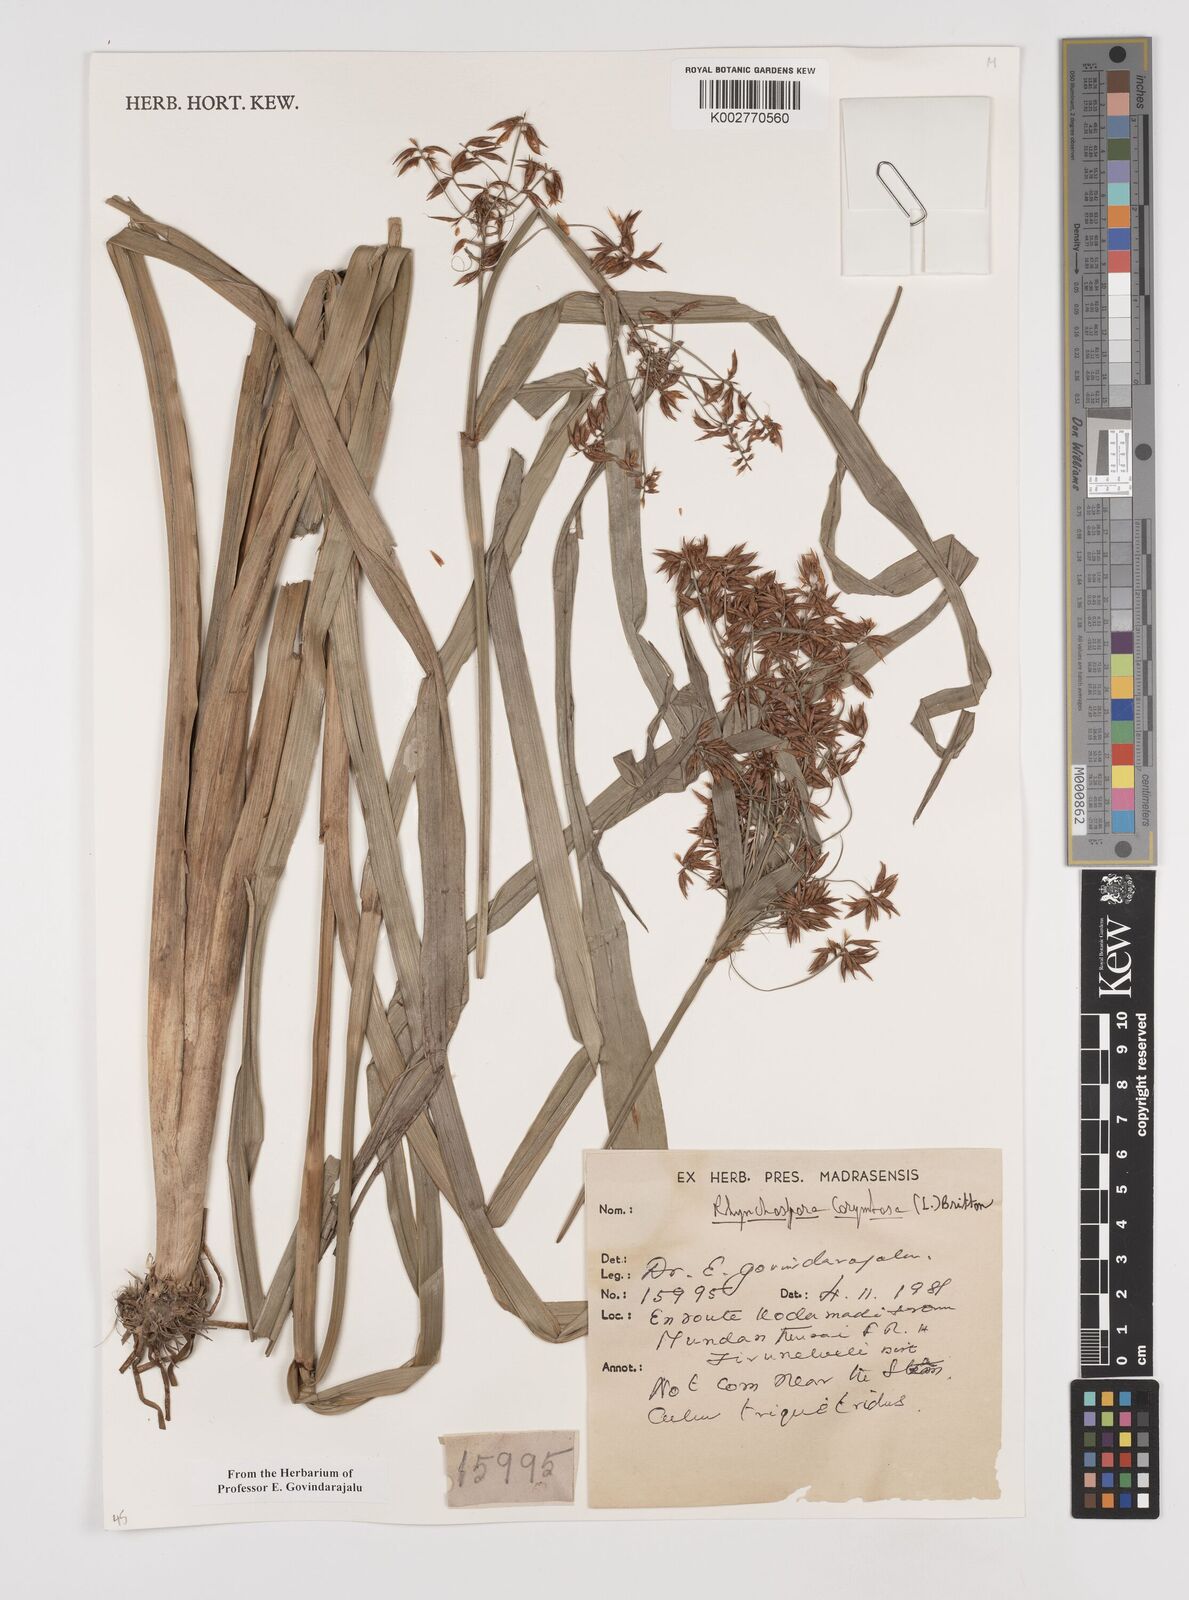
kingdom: Plantae
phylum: Tracheophyta
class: Liliopsida
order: Poales
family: Cyperaceae
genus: Rhynchospora
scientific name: Rhynchospora corymbosa
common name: Golden beak sedge
